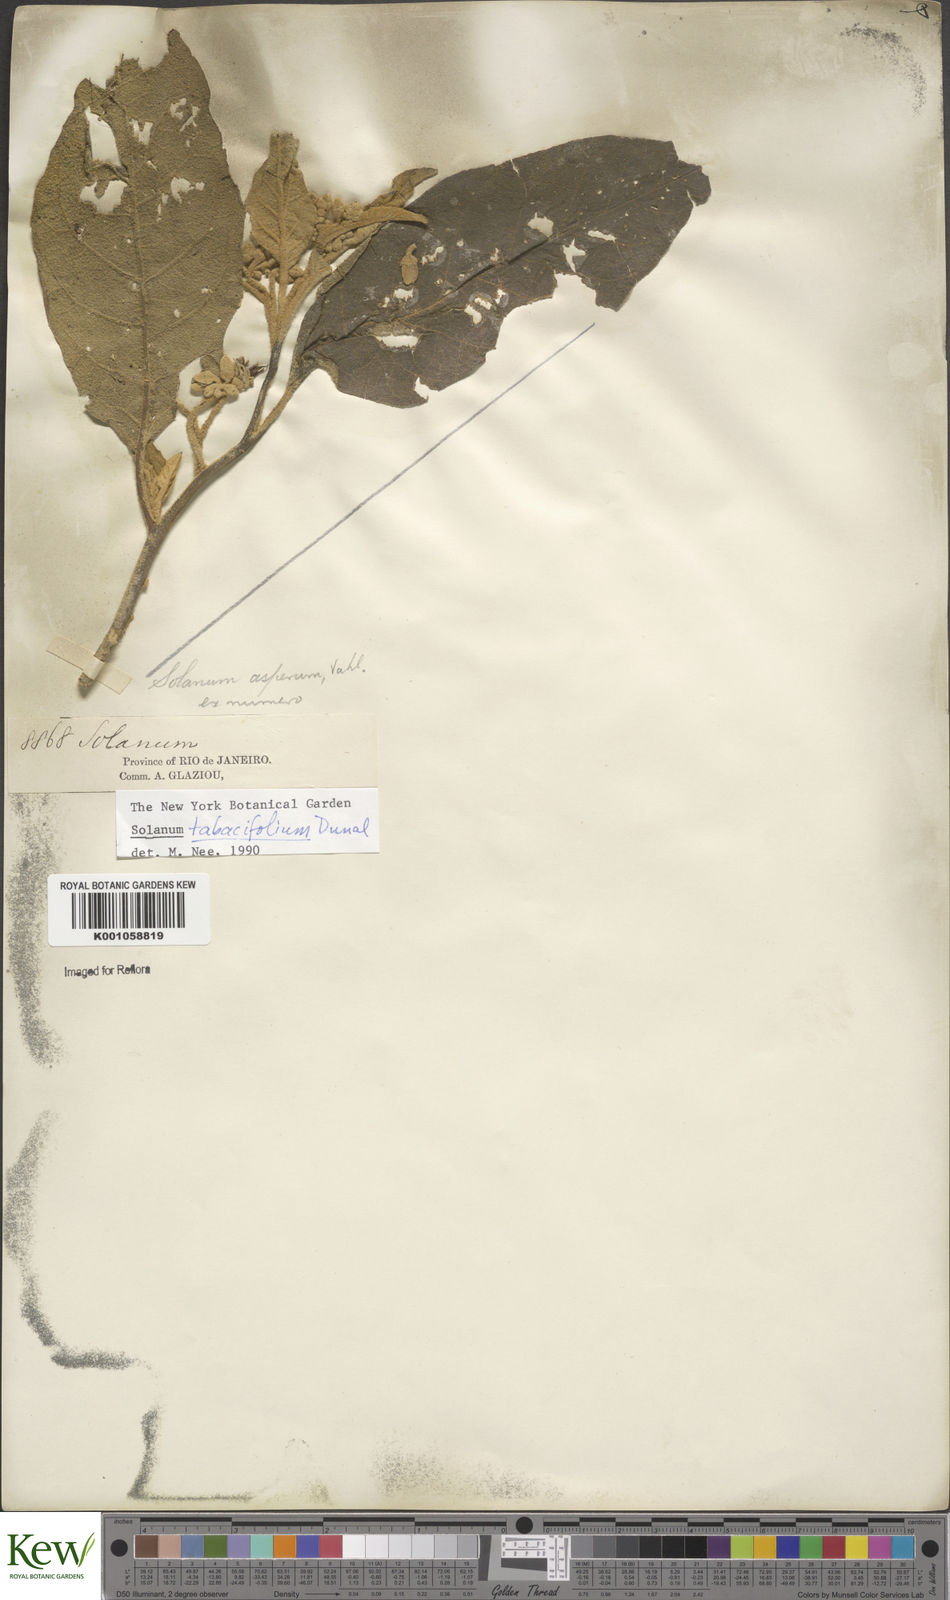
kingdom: Plantae
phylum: Tracheophyta
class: Magnoliopsida
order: Solanales
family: Solanaceae
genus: Solanum
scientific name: Solanum scuticum
